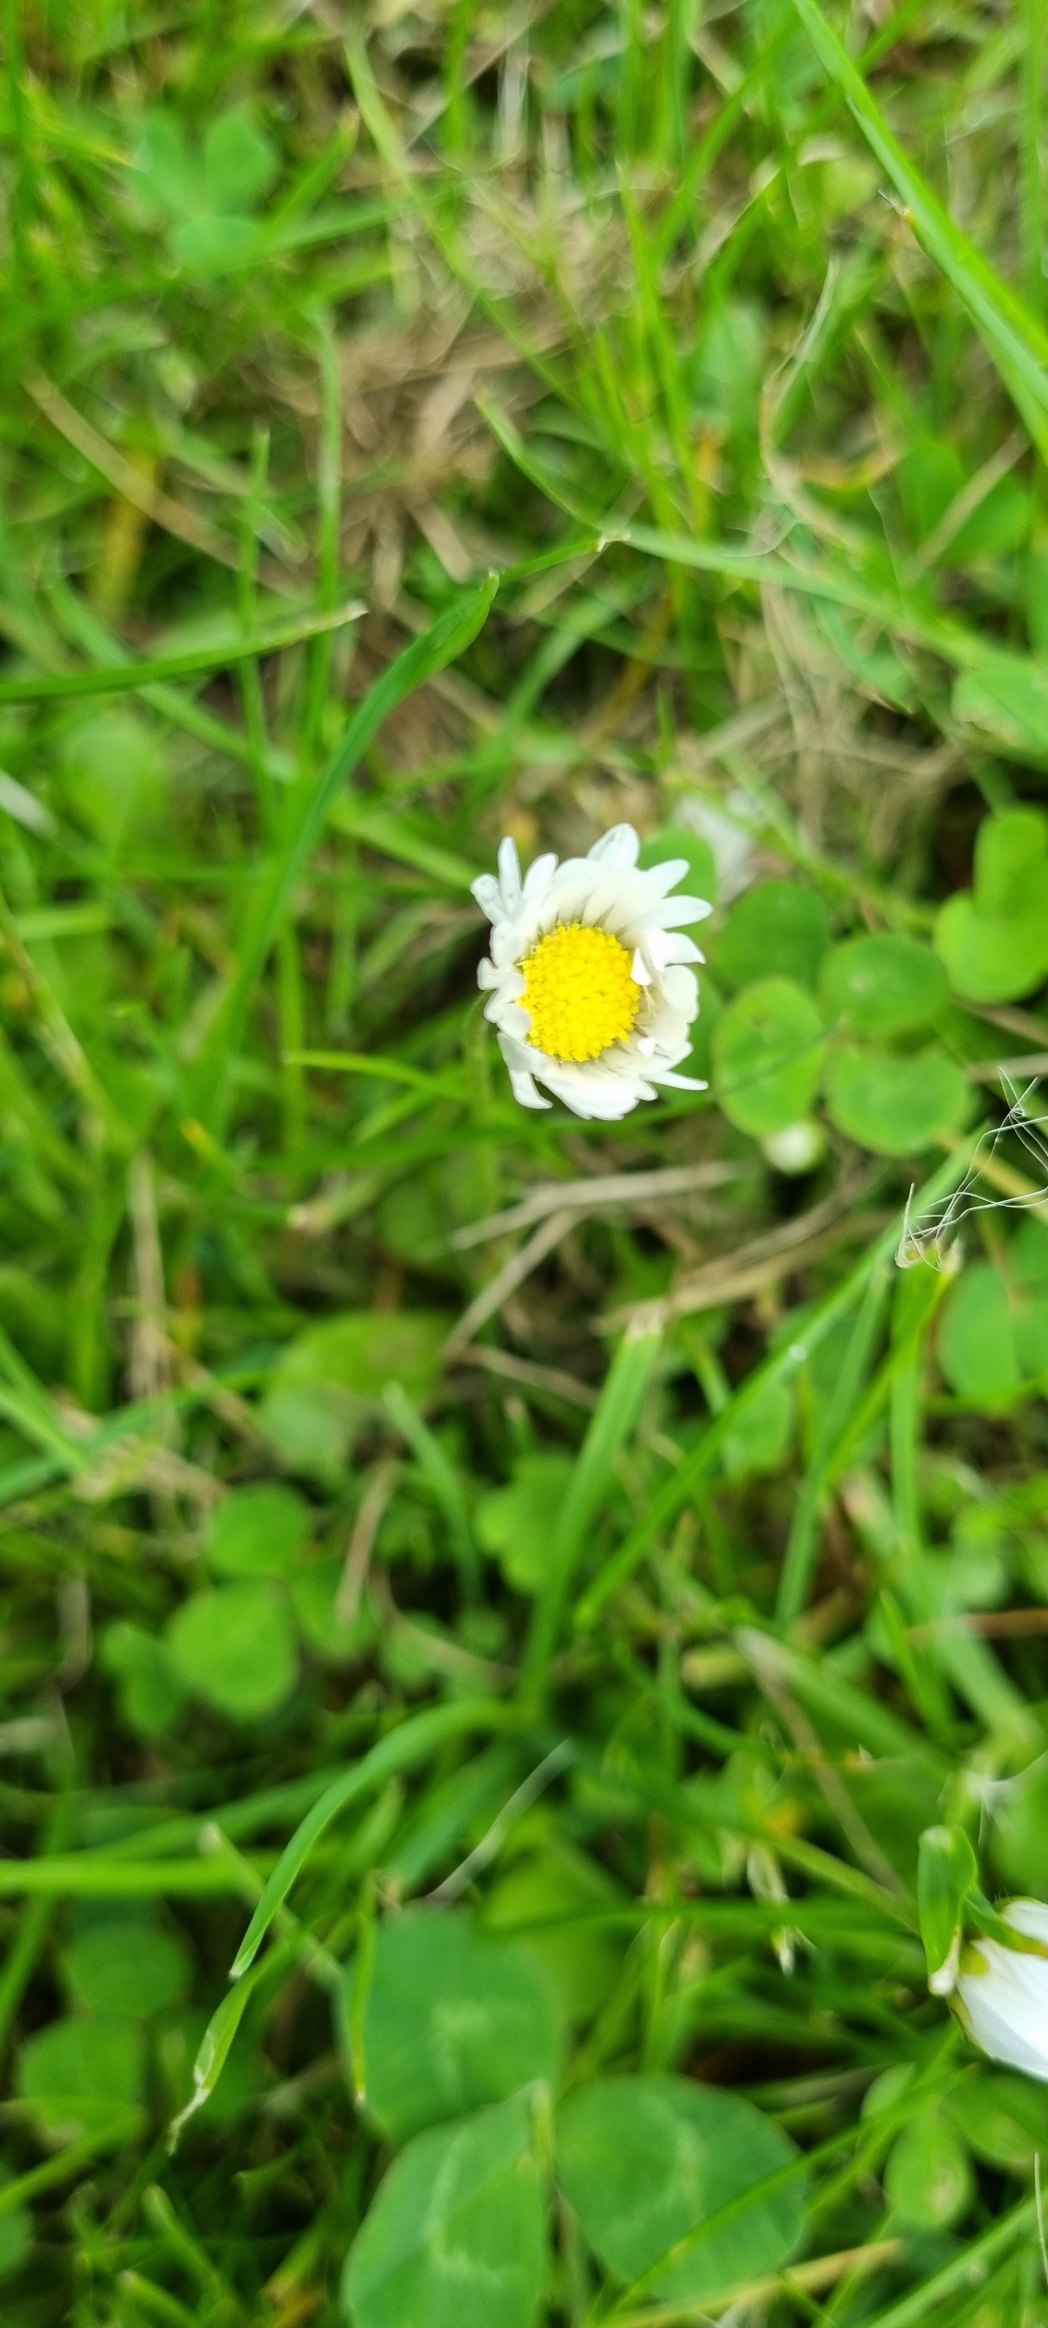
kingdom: Plantae
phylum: Tracheophyta
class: Magnoliopsida
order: Asterales
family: Asteraceae
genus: Bellis
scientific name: Bellis perennis
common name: Tusindfryd
